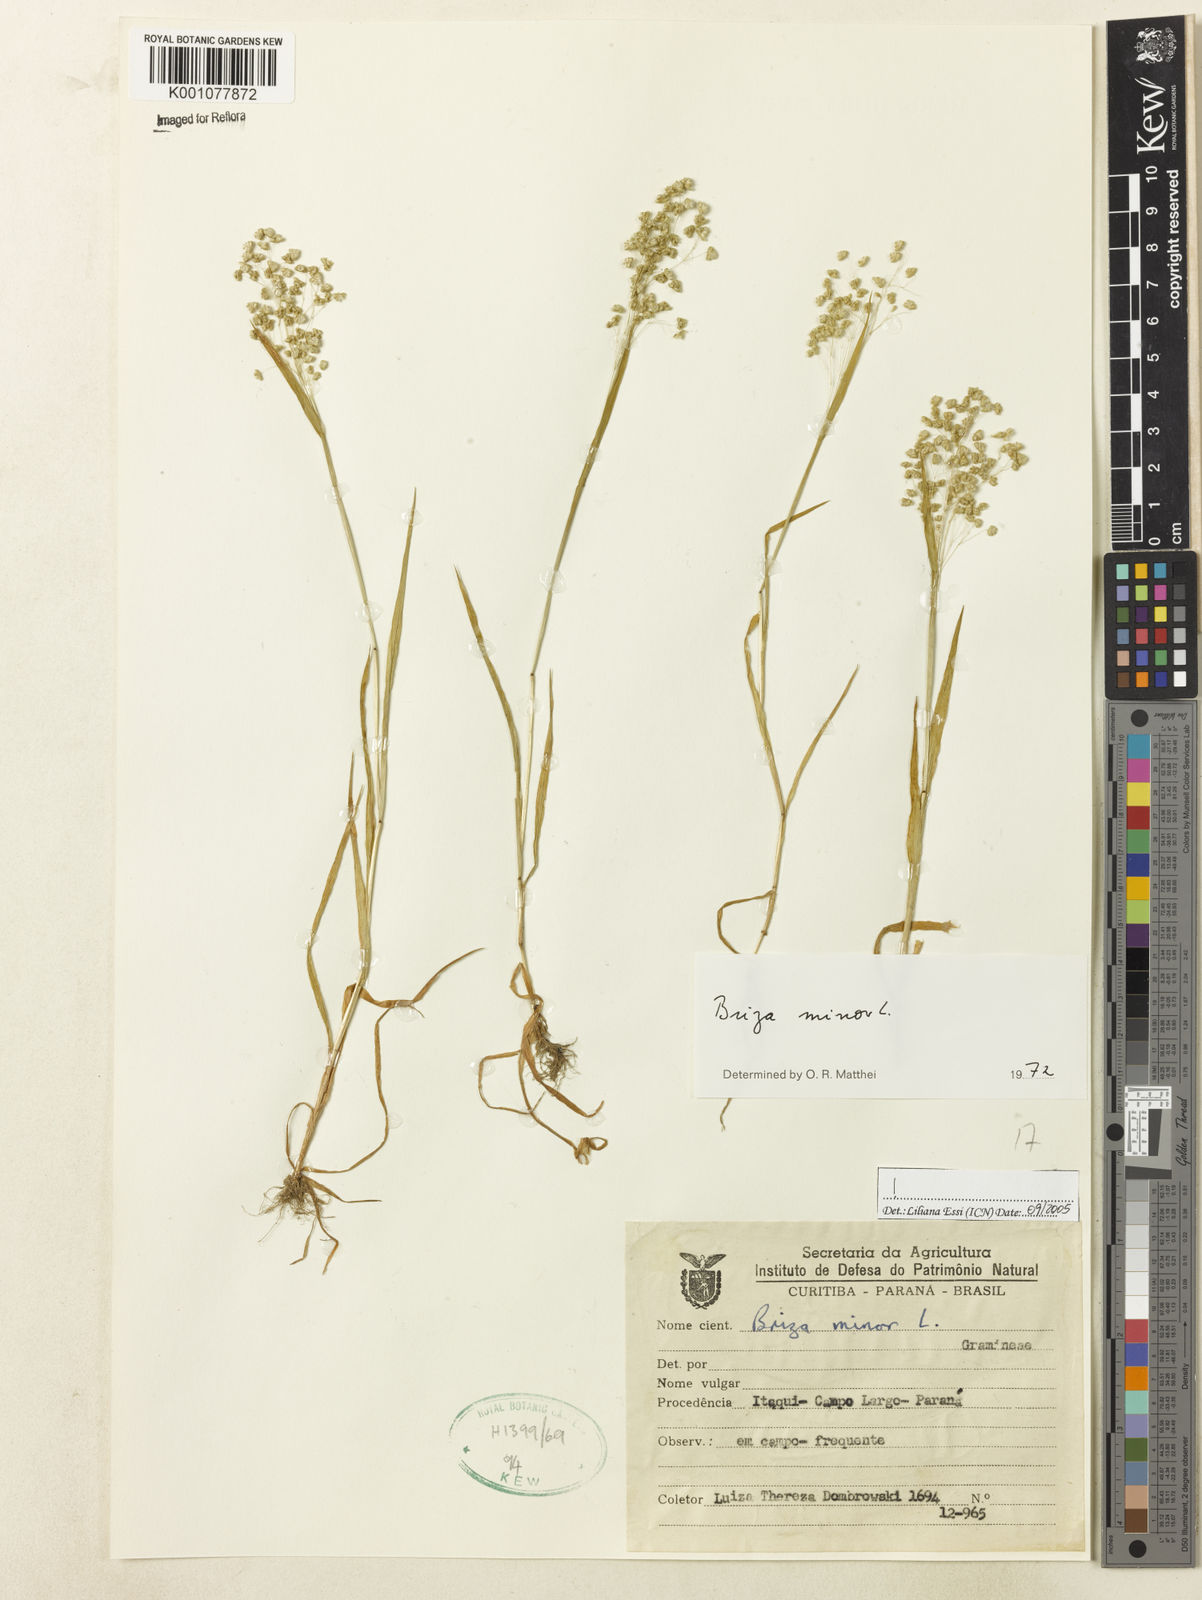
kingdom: Plantae
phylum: Tracheophyta
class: Liliopsida
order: Poales
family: Poaceae
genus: Briza
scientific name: Briza minor
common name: Lesser quaking-grass
